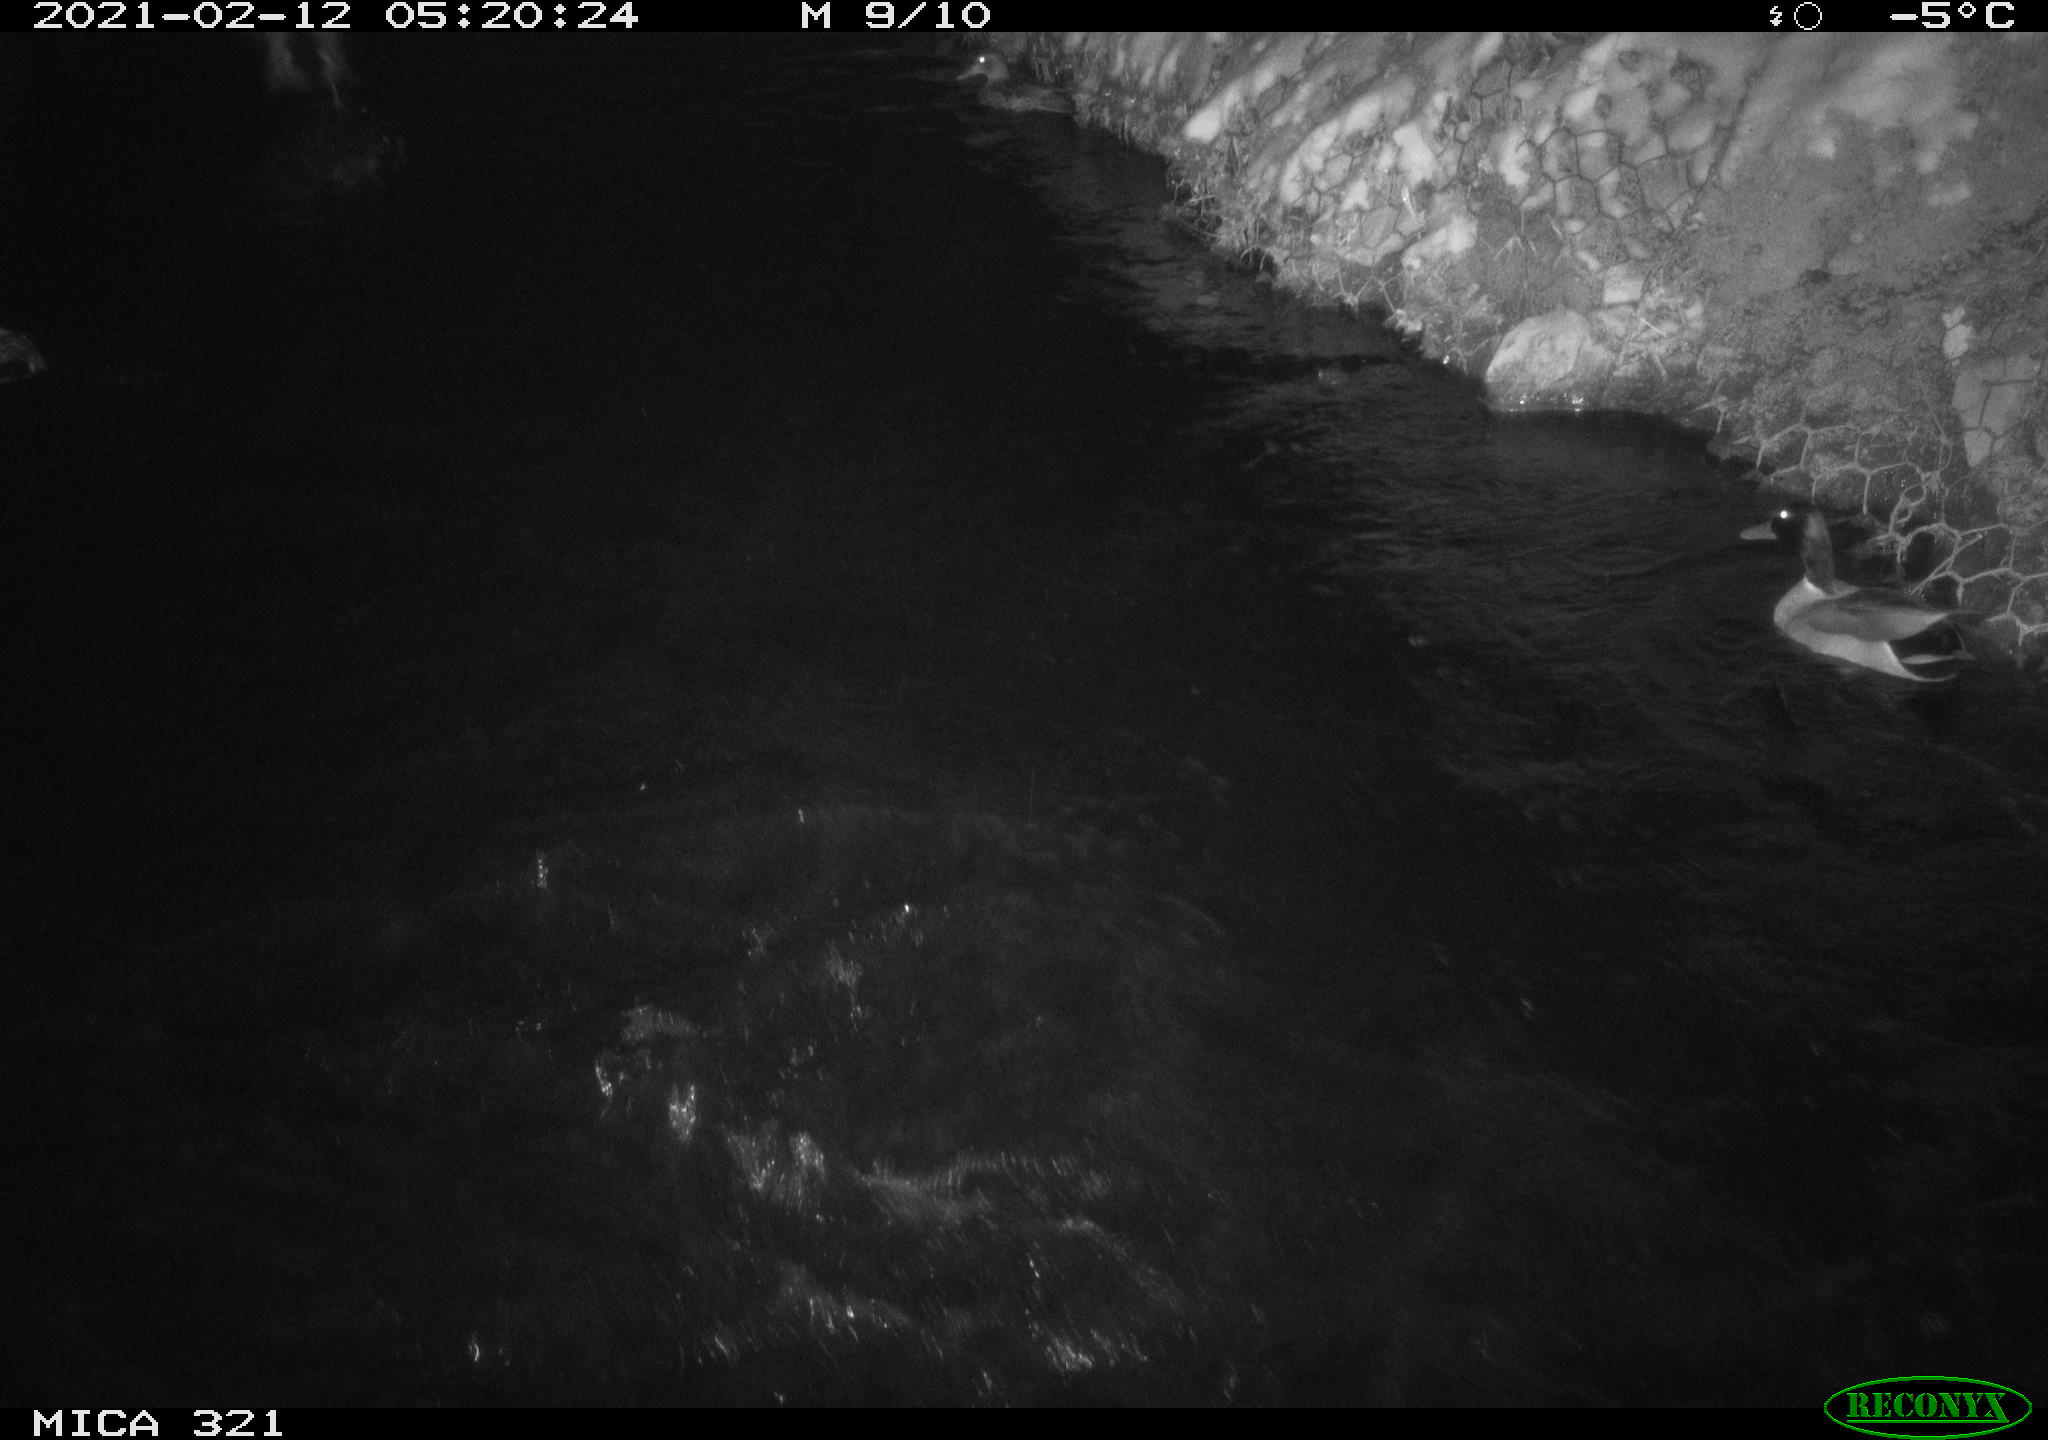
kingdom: Animalia
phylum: Chordata
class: Aves
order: Anseriformes
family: Anatidae
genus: Anas
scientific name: Anas platyrhynchos
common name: Mallard
